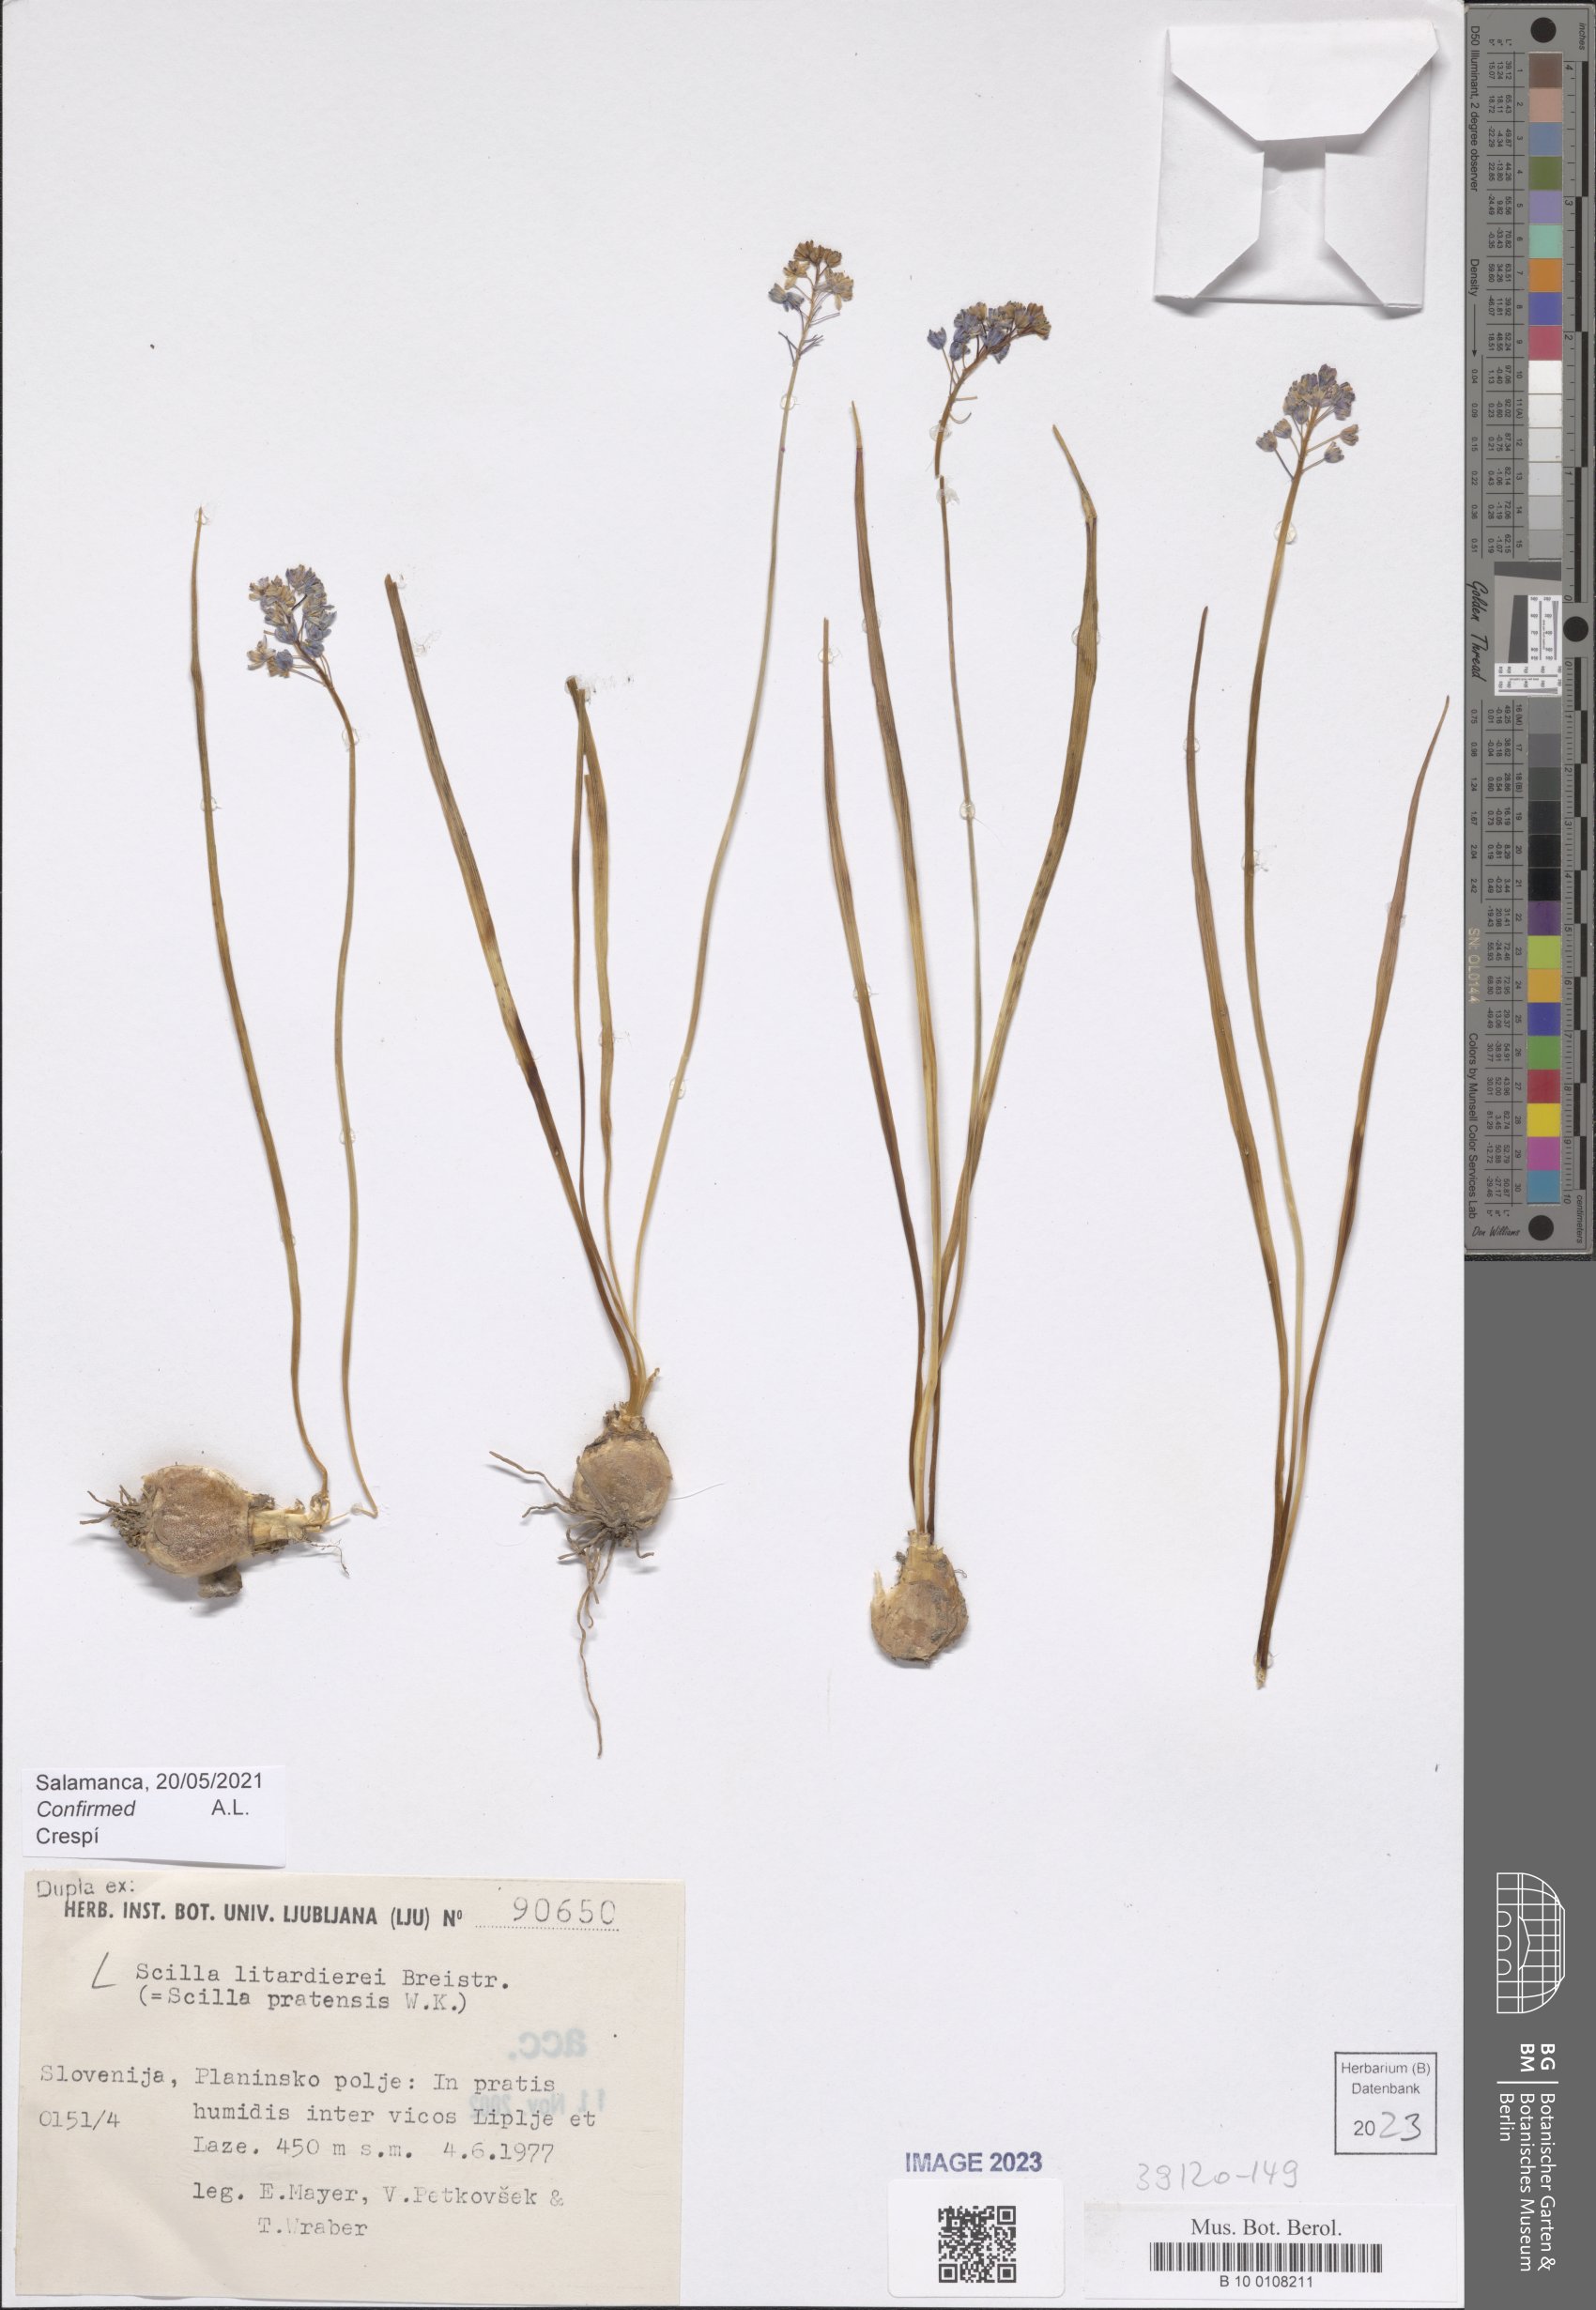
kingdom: Plantae
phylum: Tracheophyta
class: Liliopsida
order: Asparagales
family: Asparagaceae
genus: Scilla
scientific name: Scilla litardierei
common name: Amethyst meadow squill
